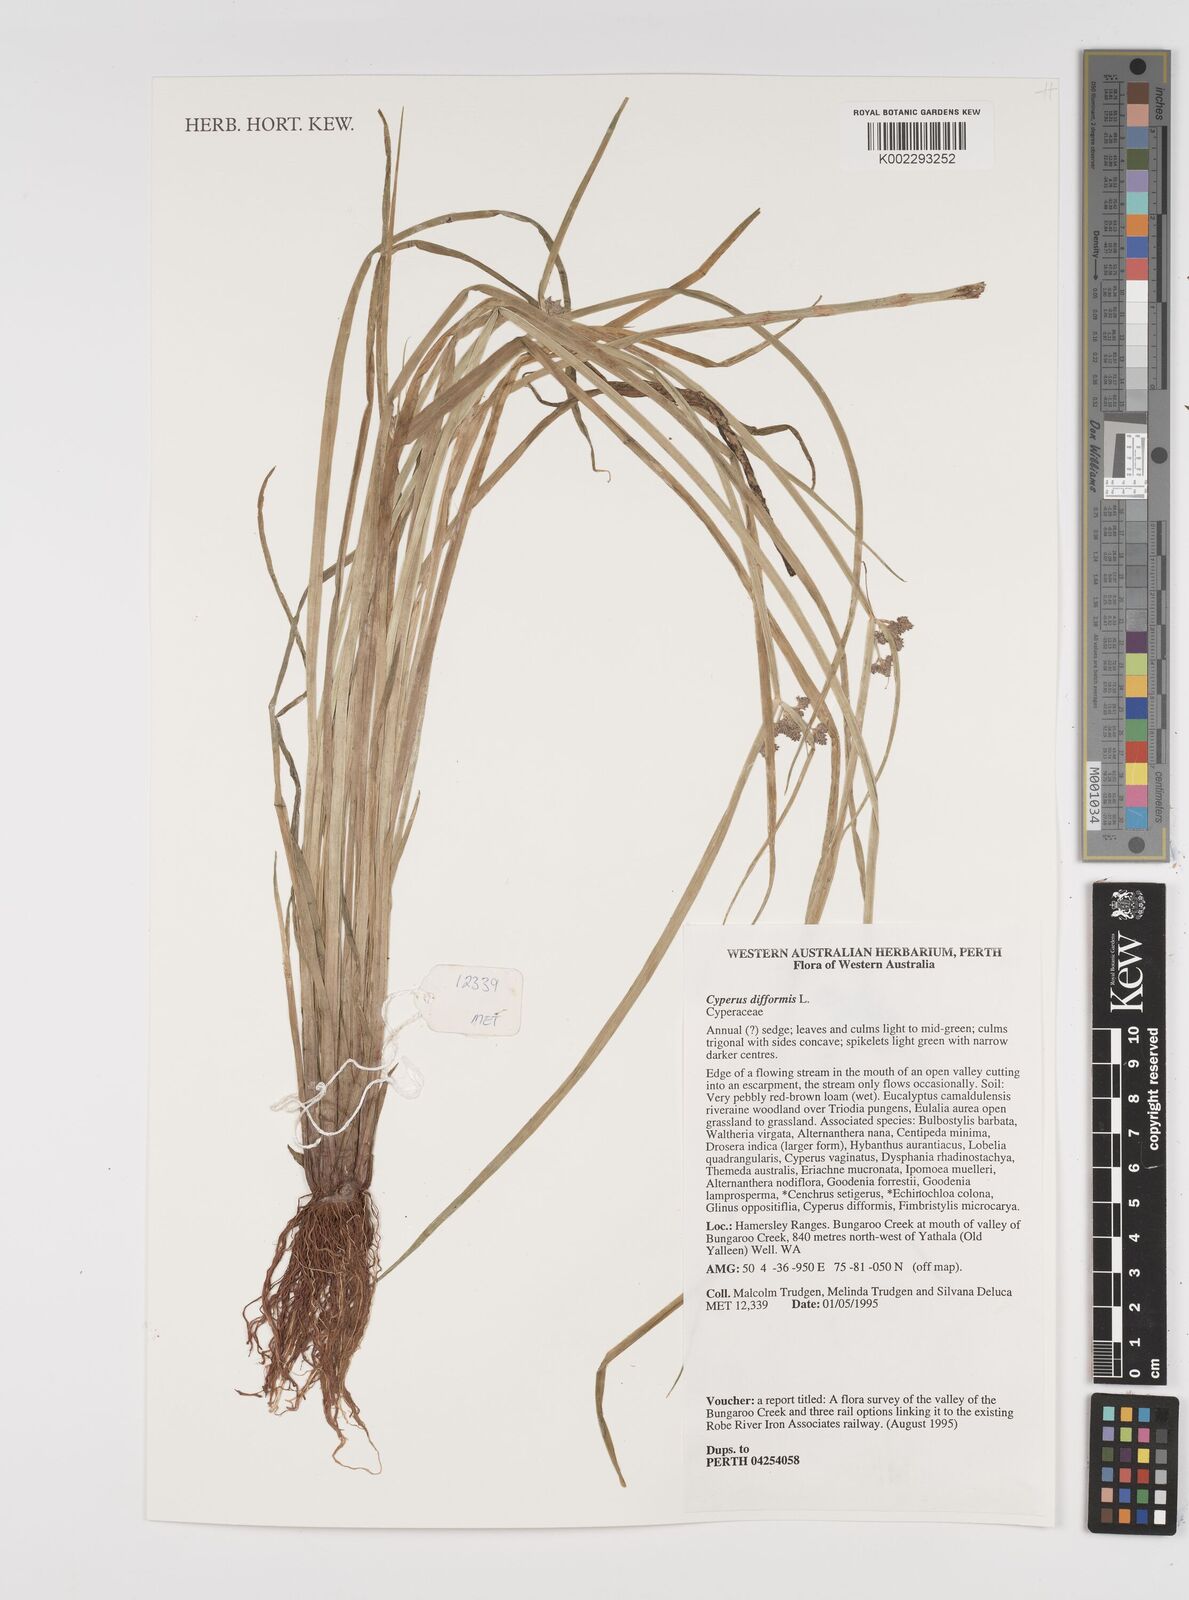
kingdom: Plantae
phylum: Tracheophyta
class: Liliopsida
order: Poales
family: Cyperaceae
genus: Cyperus
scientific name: Cyperus difformis
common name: Variable flatsedge
